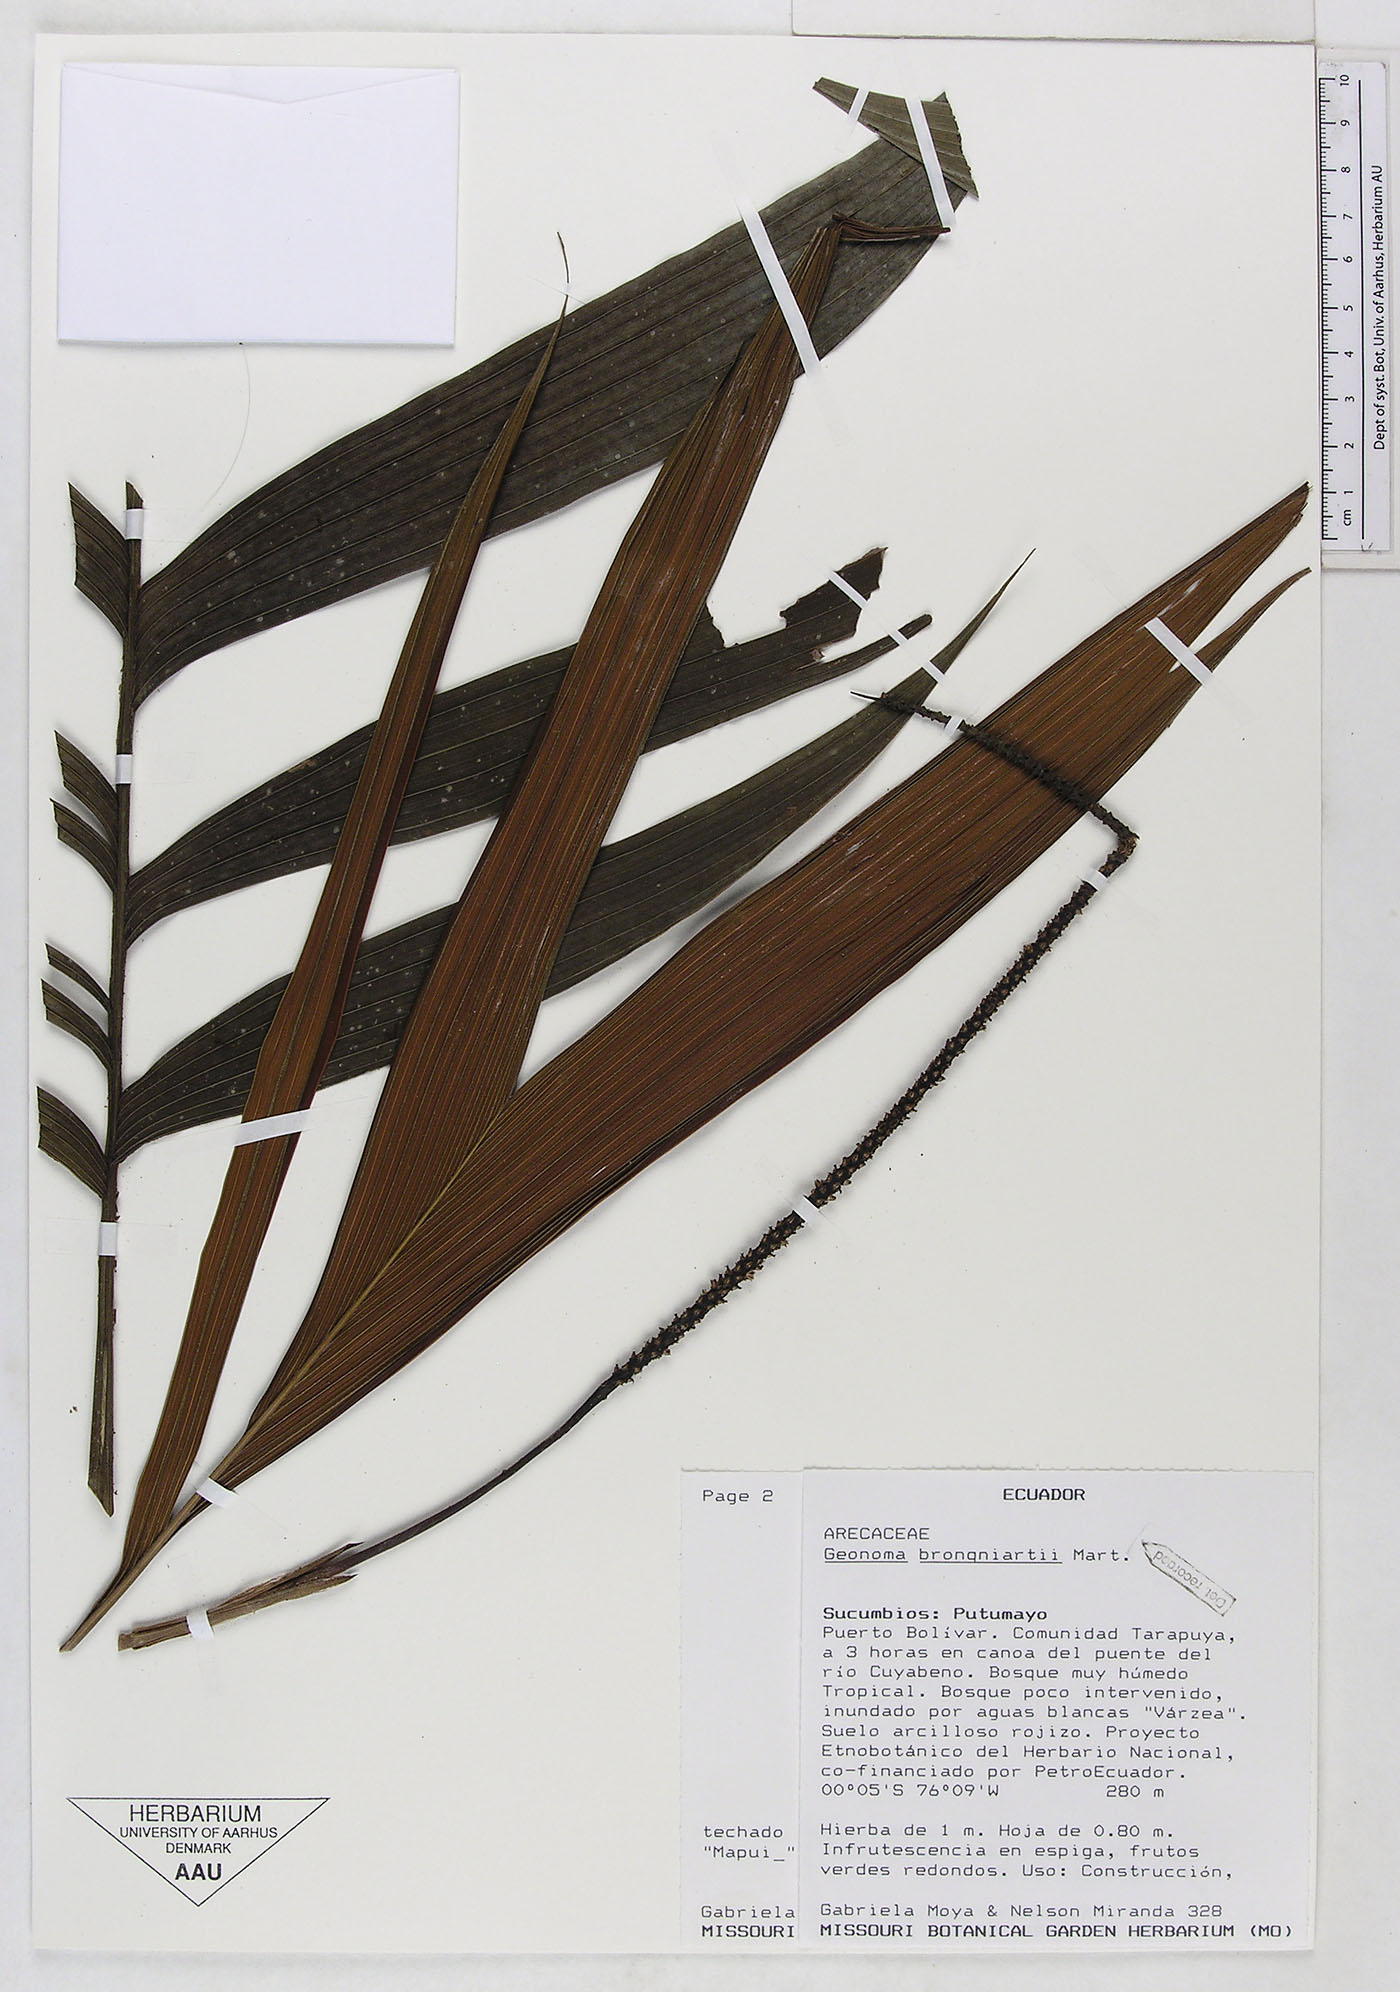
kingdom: Plantae
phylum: Tracheophyta
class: Liliopsida
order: Arecales
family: Arecaceae
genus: Geonoma
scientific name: Geonoma brongniartii
